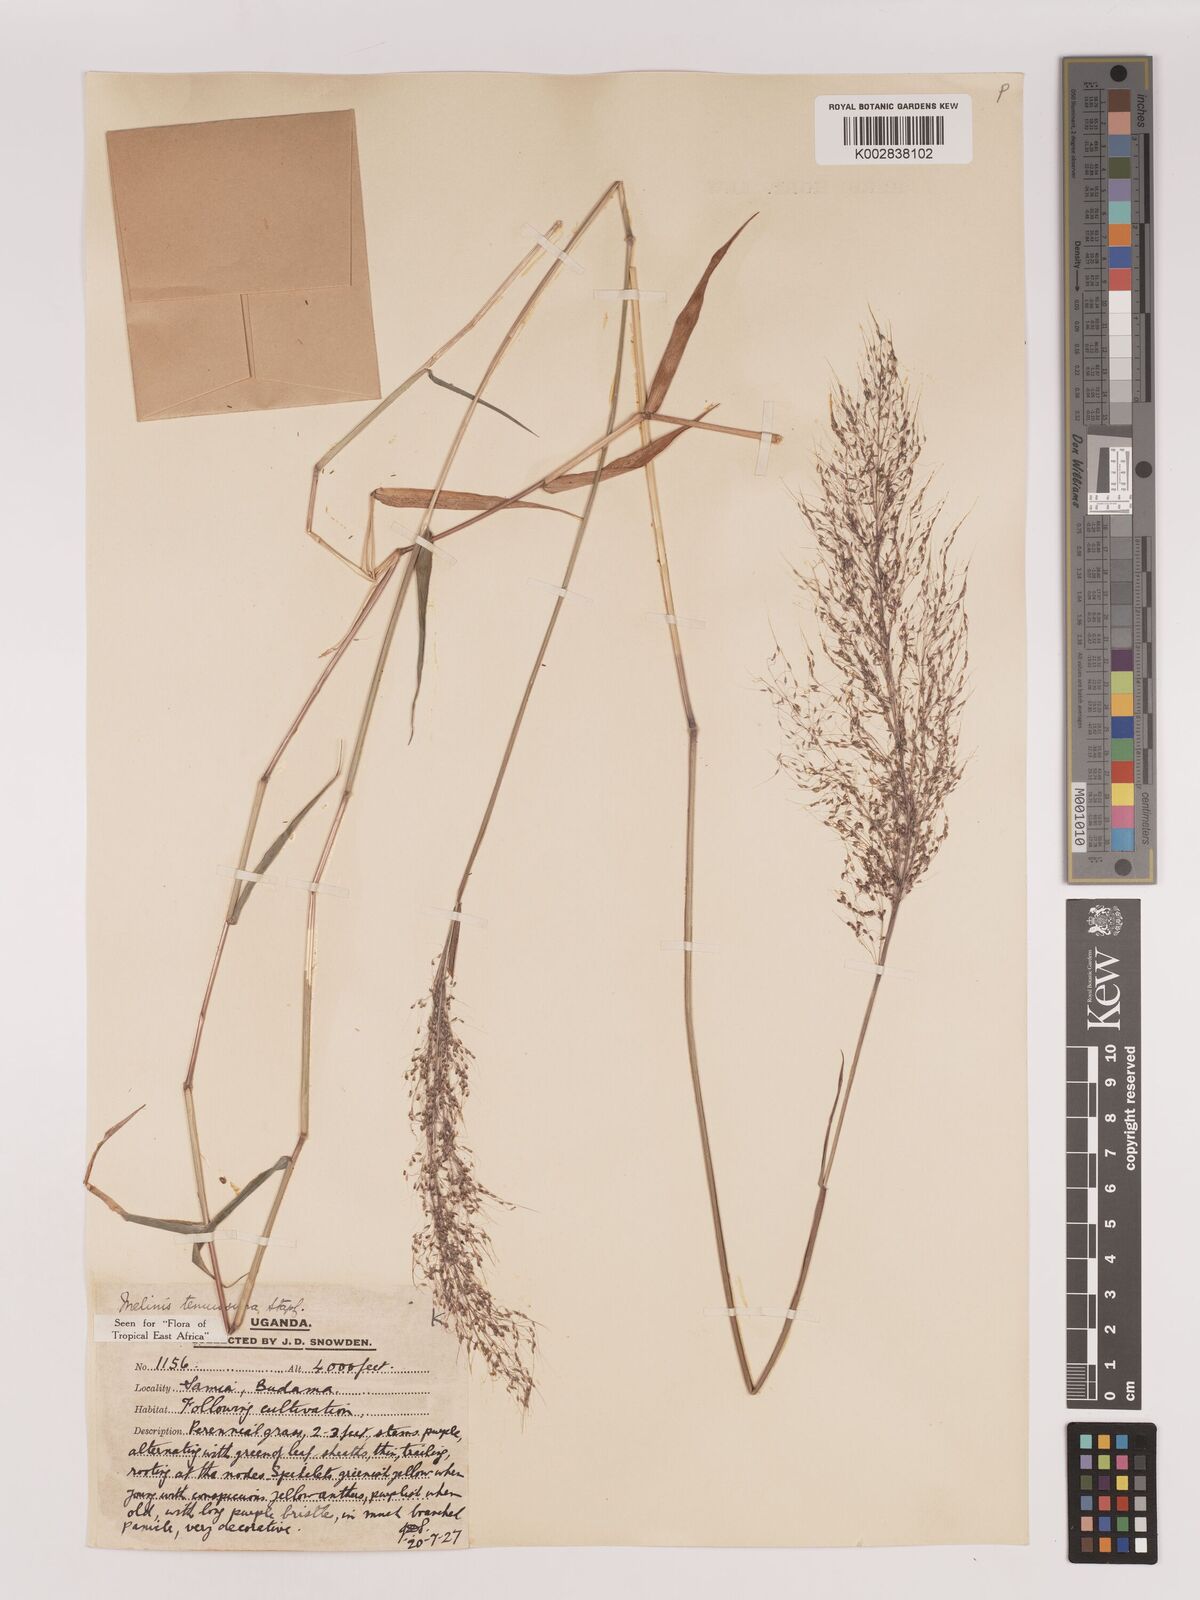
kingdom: Plantae
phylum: Tracheophyta
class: Liliopsida
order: Poales
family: Poaceae
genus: Melinis
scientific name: Melinis tenuissima
